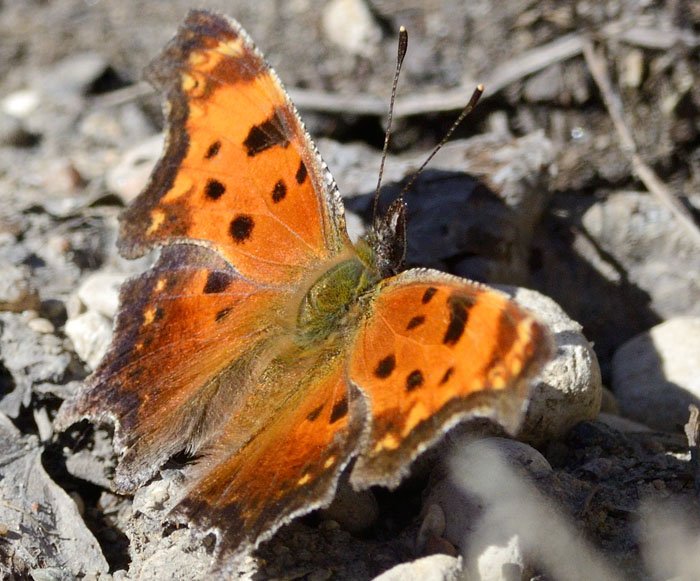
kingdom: Animalia
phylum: Arthropoda
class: Insecta
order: Lepidoptera
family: Nymphalidae
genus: Polygonia
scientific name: Polygonia progne
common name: Gray Comma
